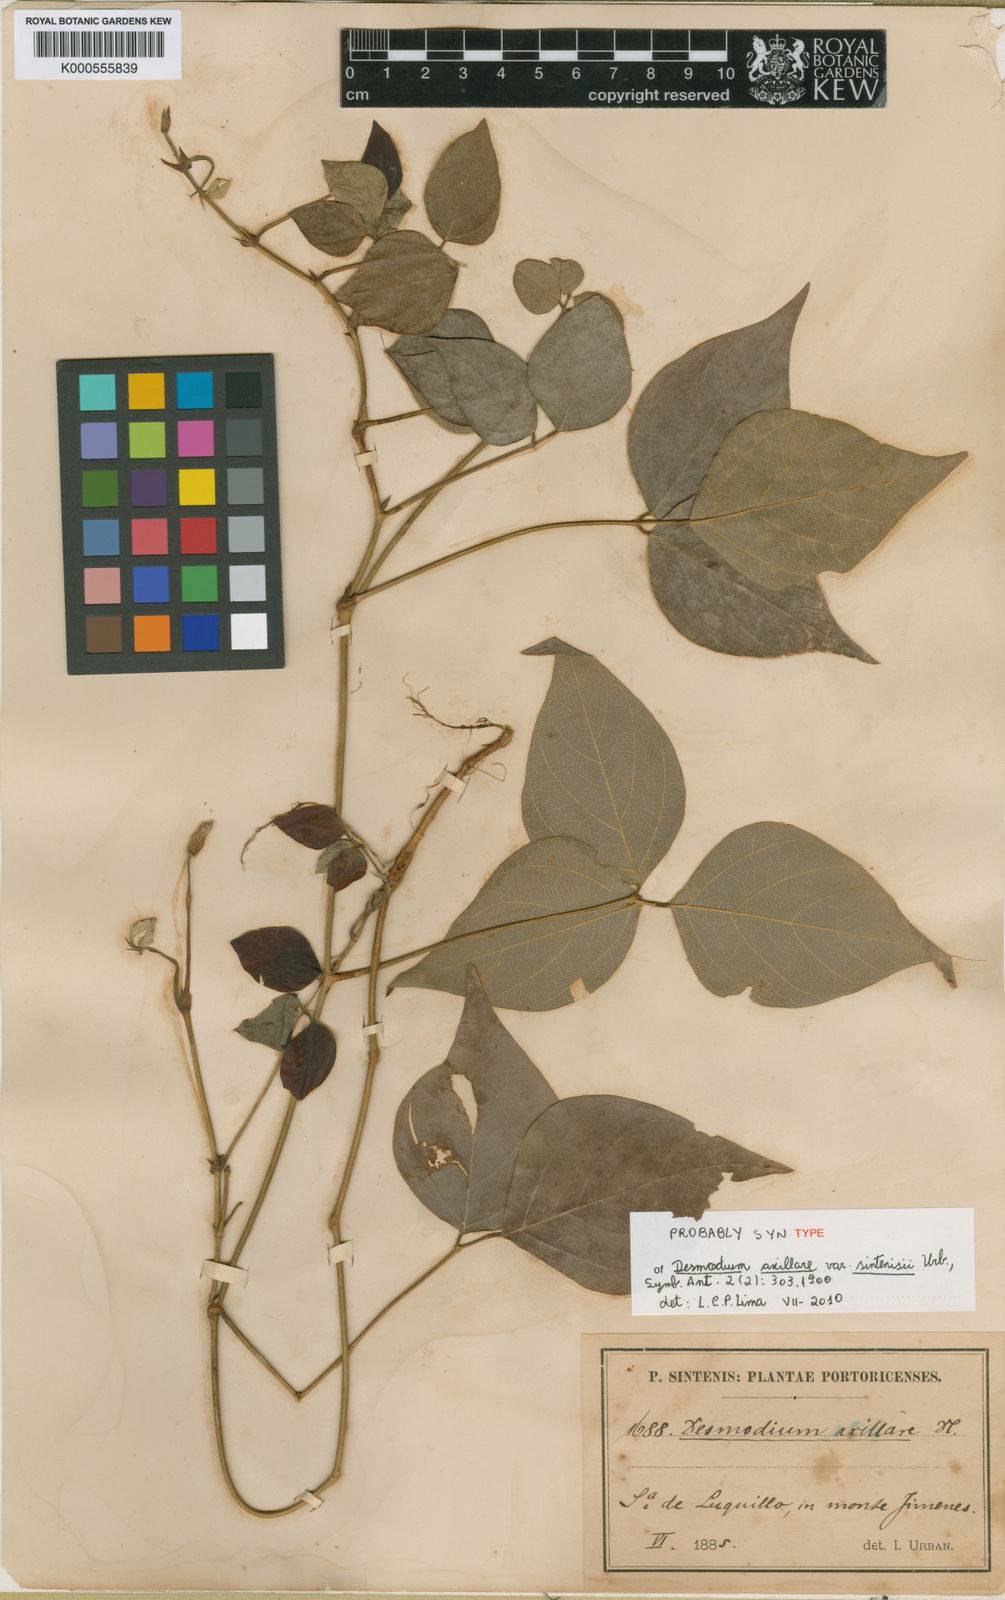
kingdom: Plantae
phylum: Tracheophyta
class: Magnoliopsida
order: Fabales
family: Fabaceae
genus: Desmodium
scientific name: Desmodium axillare
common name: Wire with
